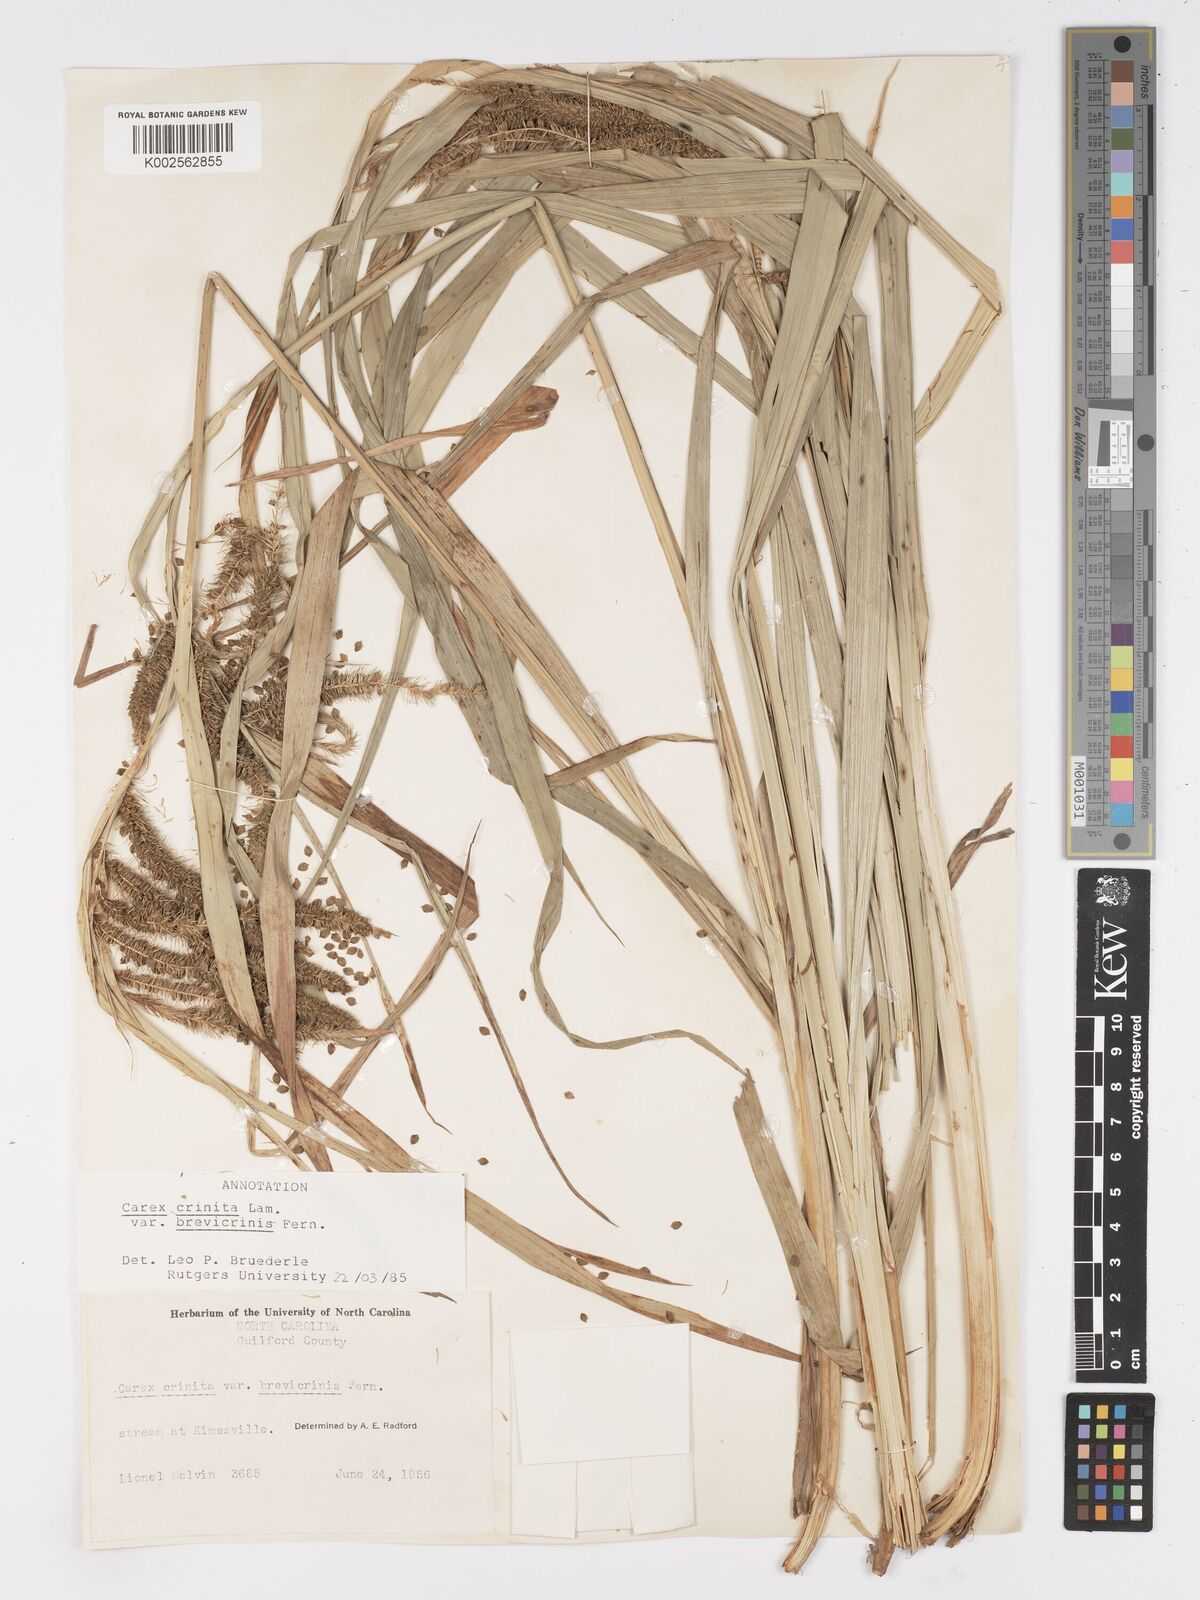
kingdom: Plantae
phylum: Tracheophyta
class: Liliopsida
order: Poales
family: Cyperaceae
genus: Carex
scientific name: Carex crinita
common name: Fringed sedge
